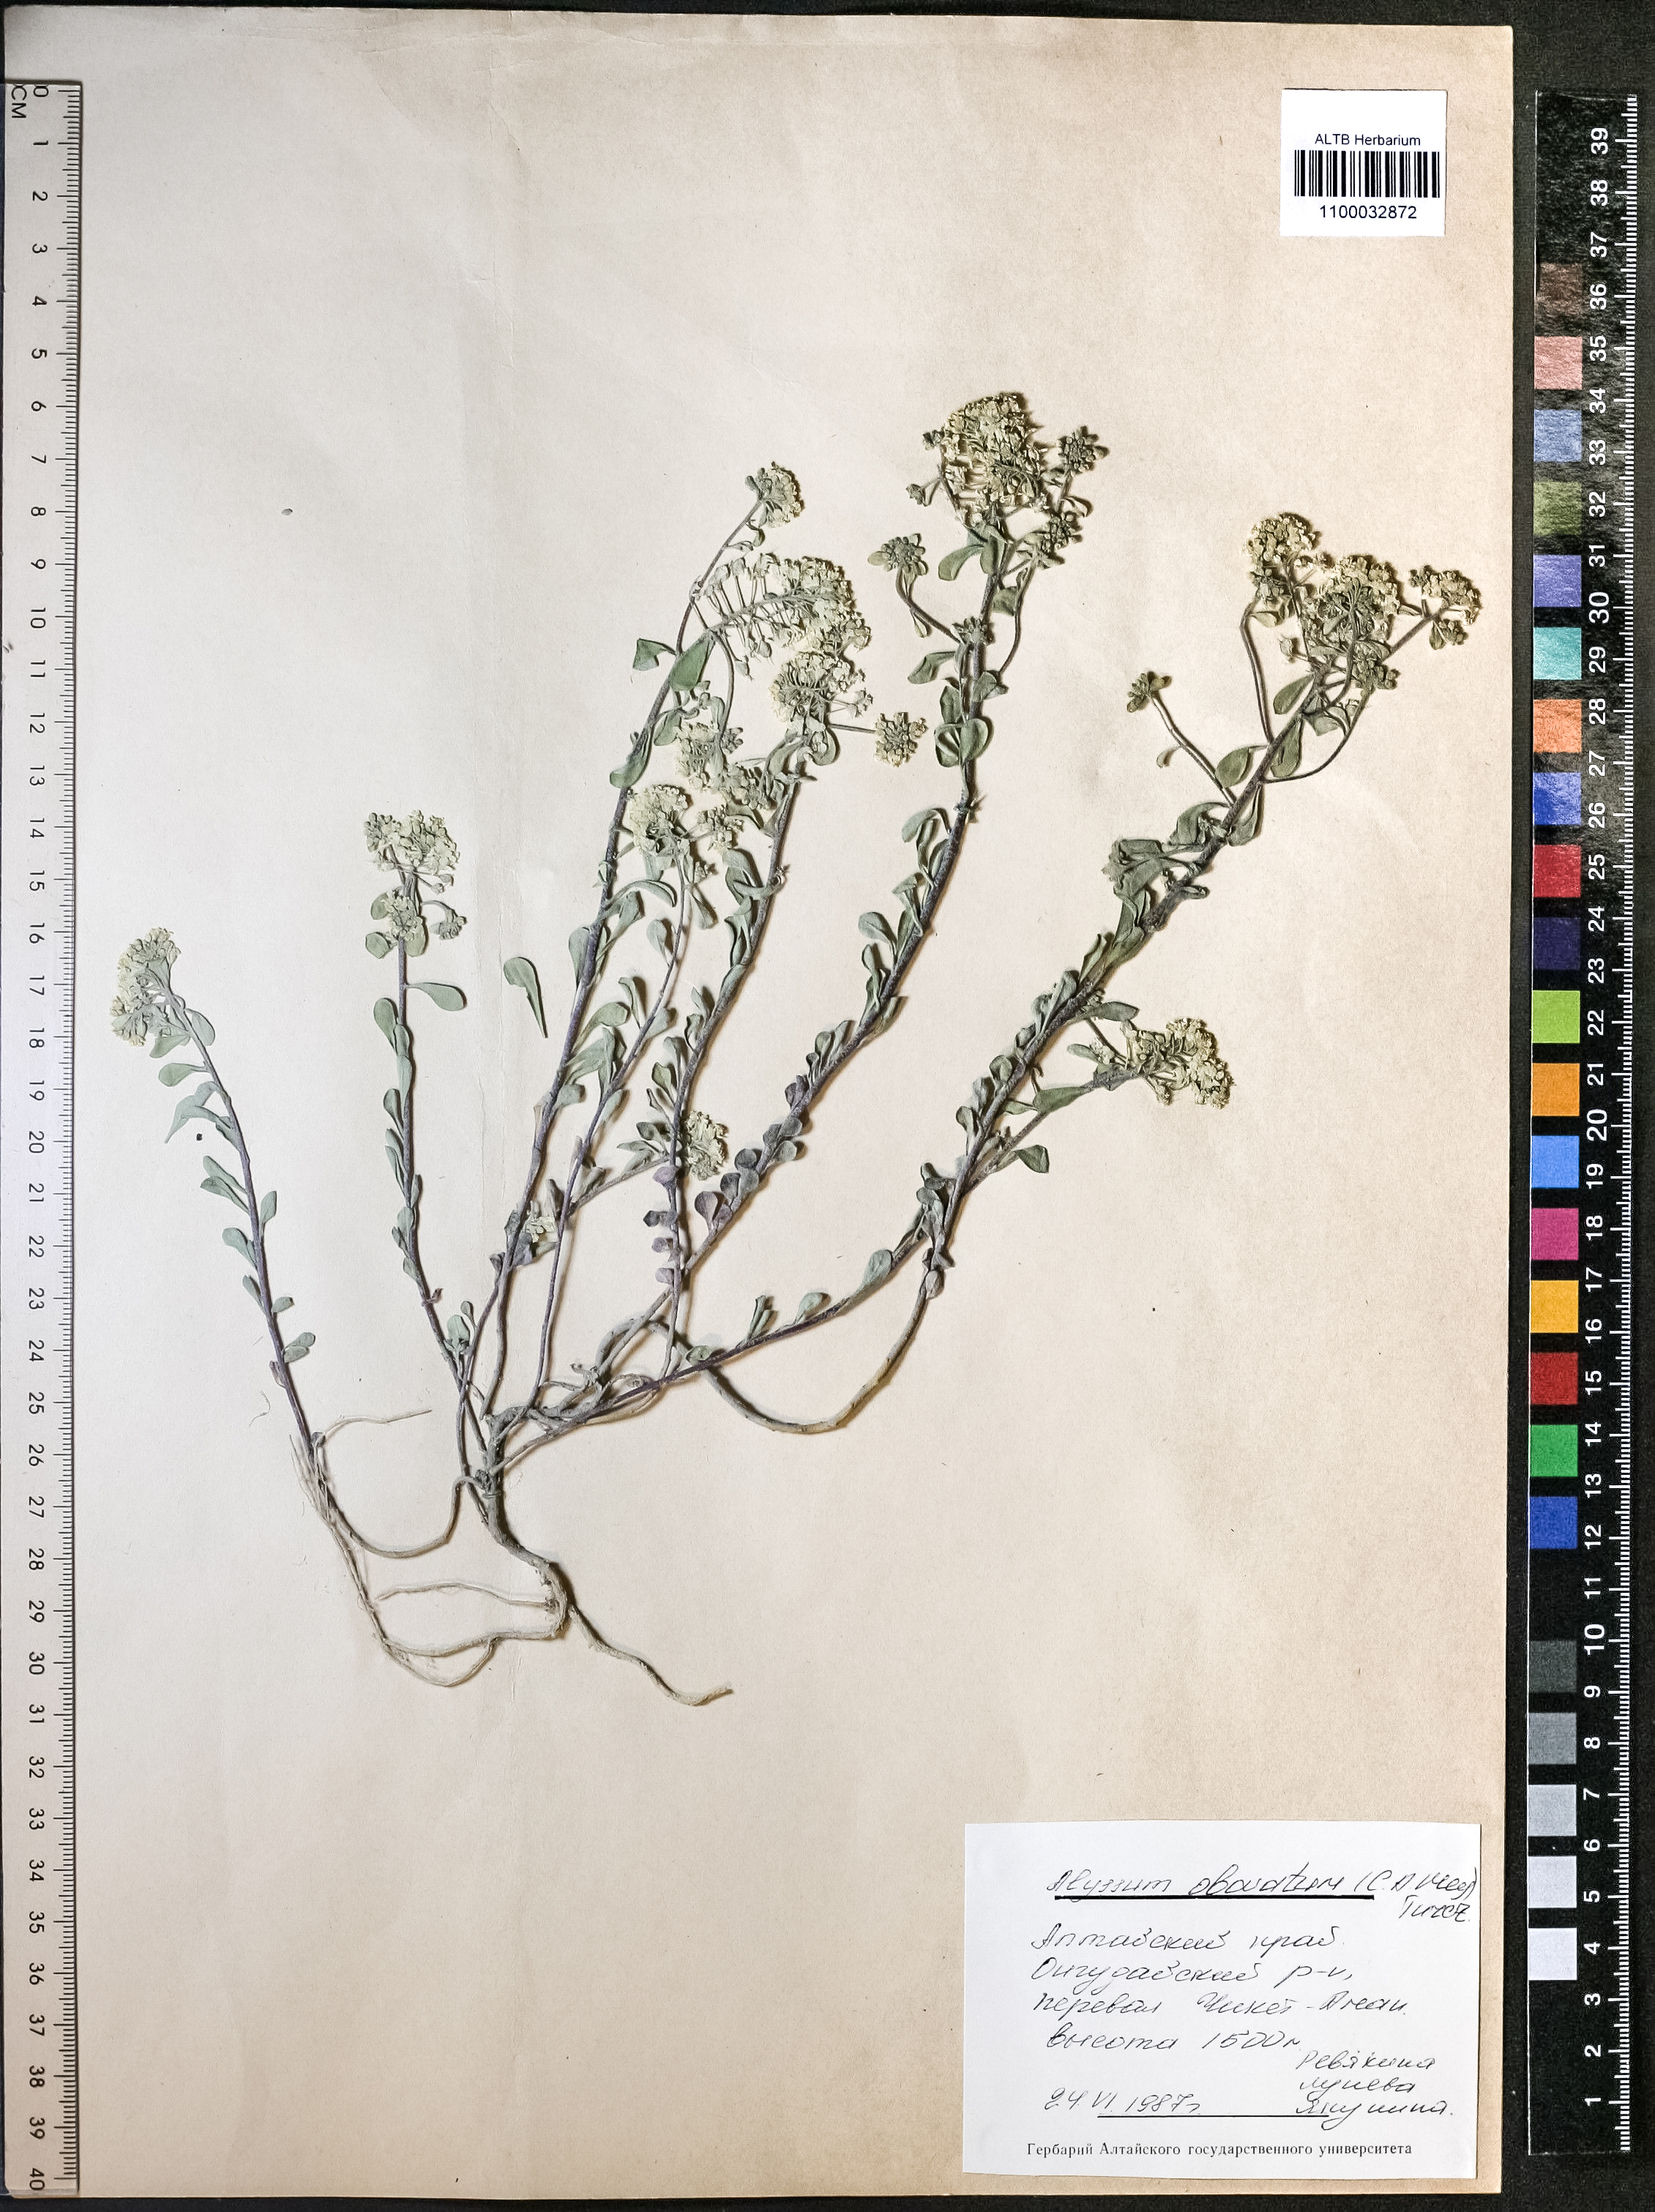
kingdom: Plantae
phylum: Tracheophyta
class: Magnoliopsida
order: Brassicales
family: Brassicaceae
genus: Odontarrhena
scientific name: Odontarrhena obovata
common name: American alyssum
